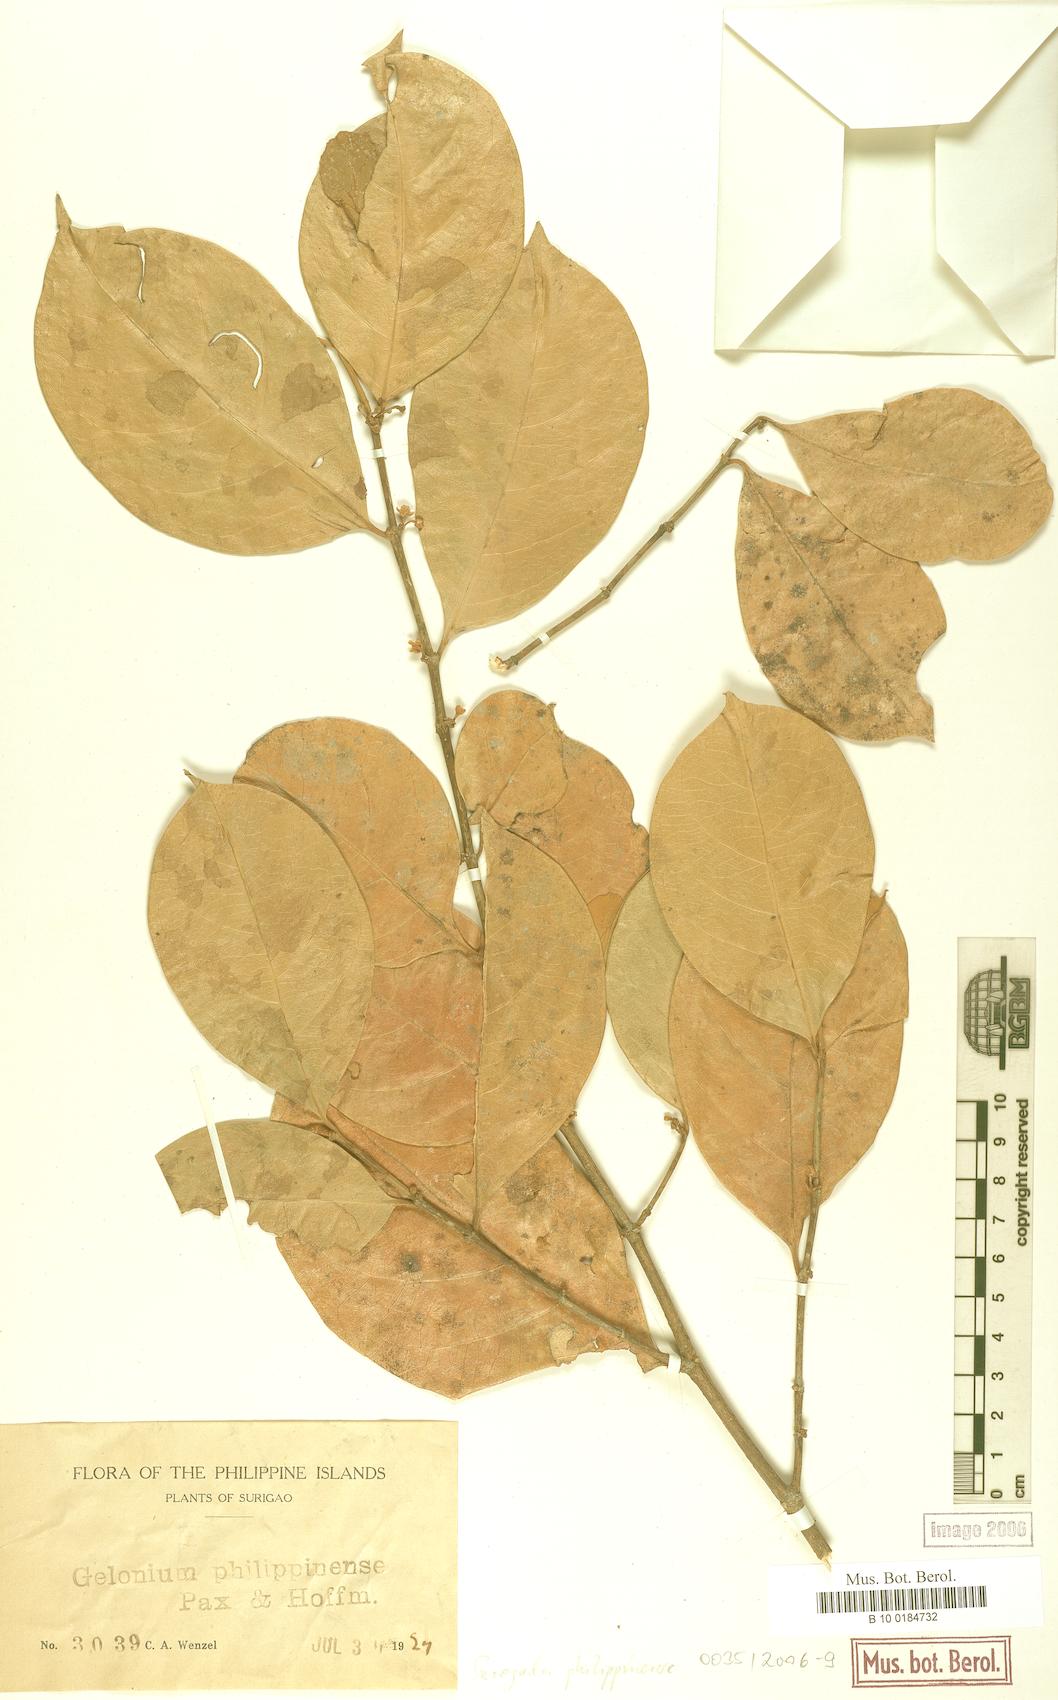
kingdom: Plantae
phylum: Tracheophyta
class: Magnoliopsida
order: Malpighiales
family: Euphorbiaceae
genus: Suregada
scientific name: Suregada glomerulata
